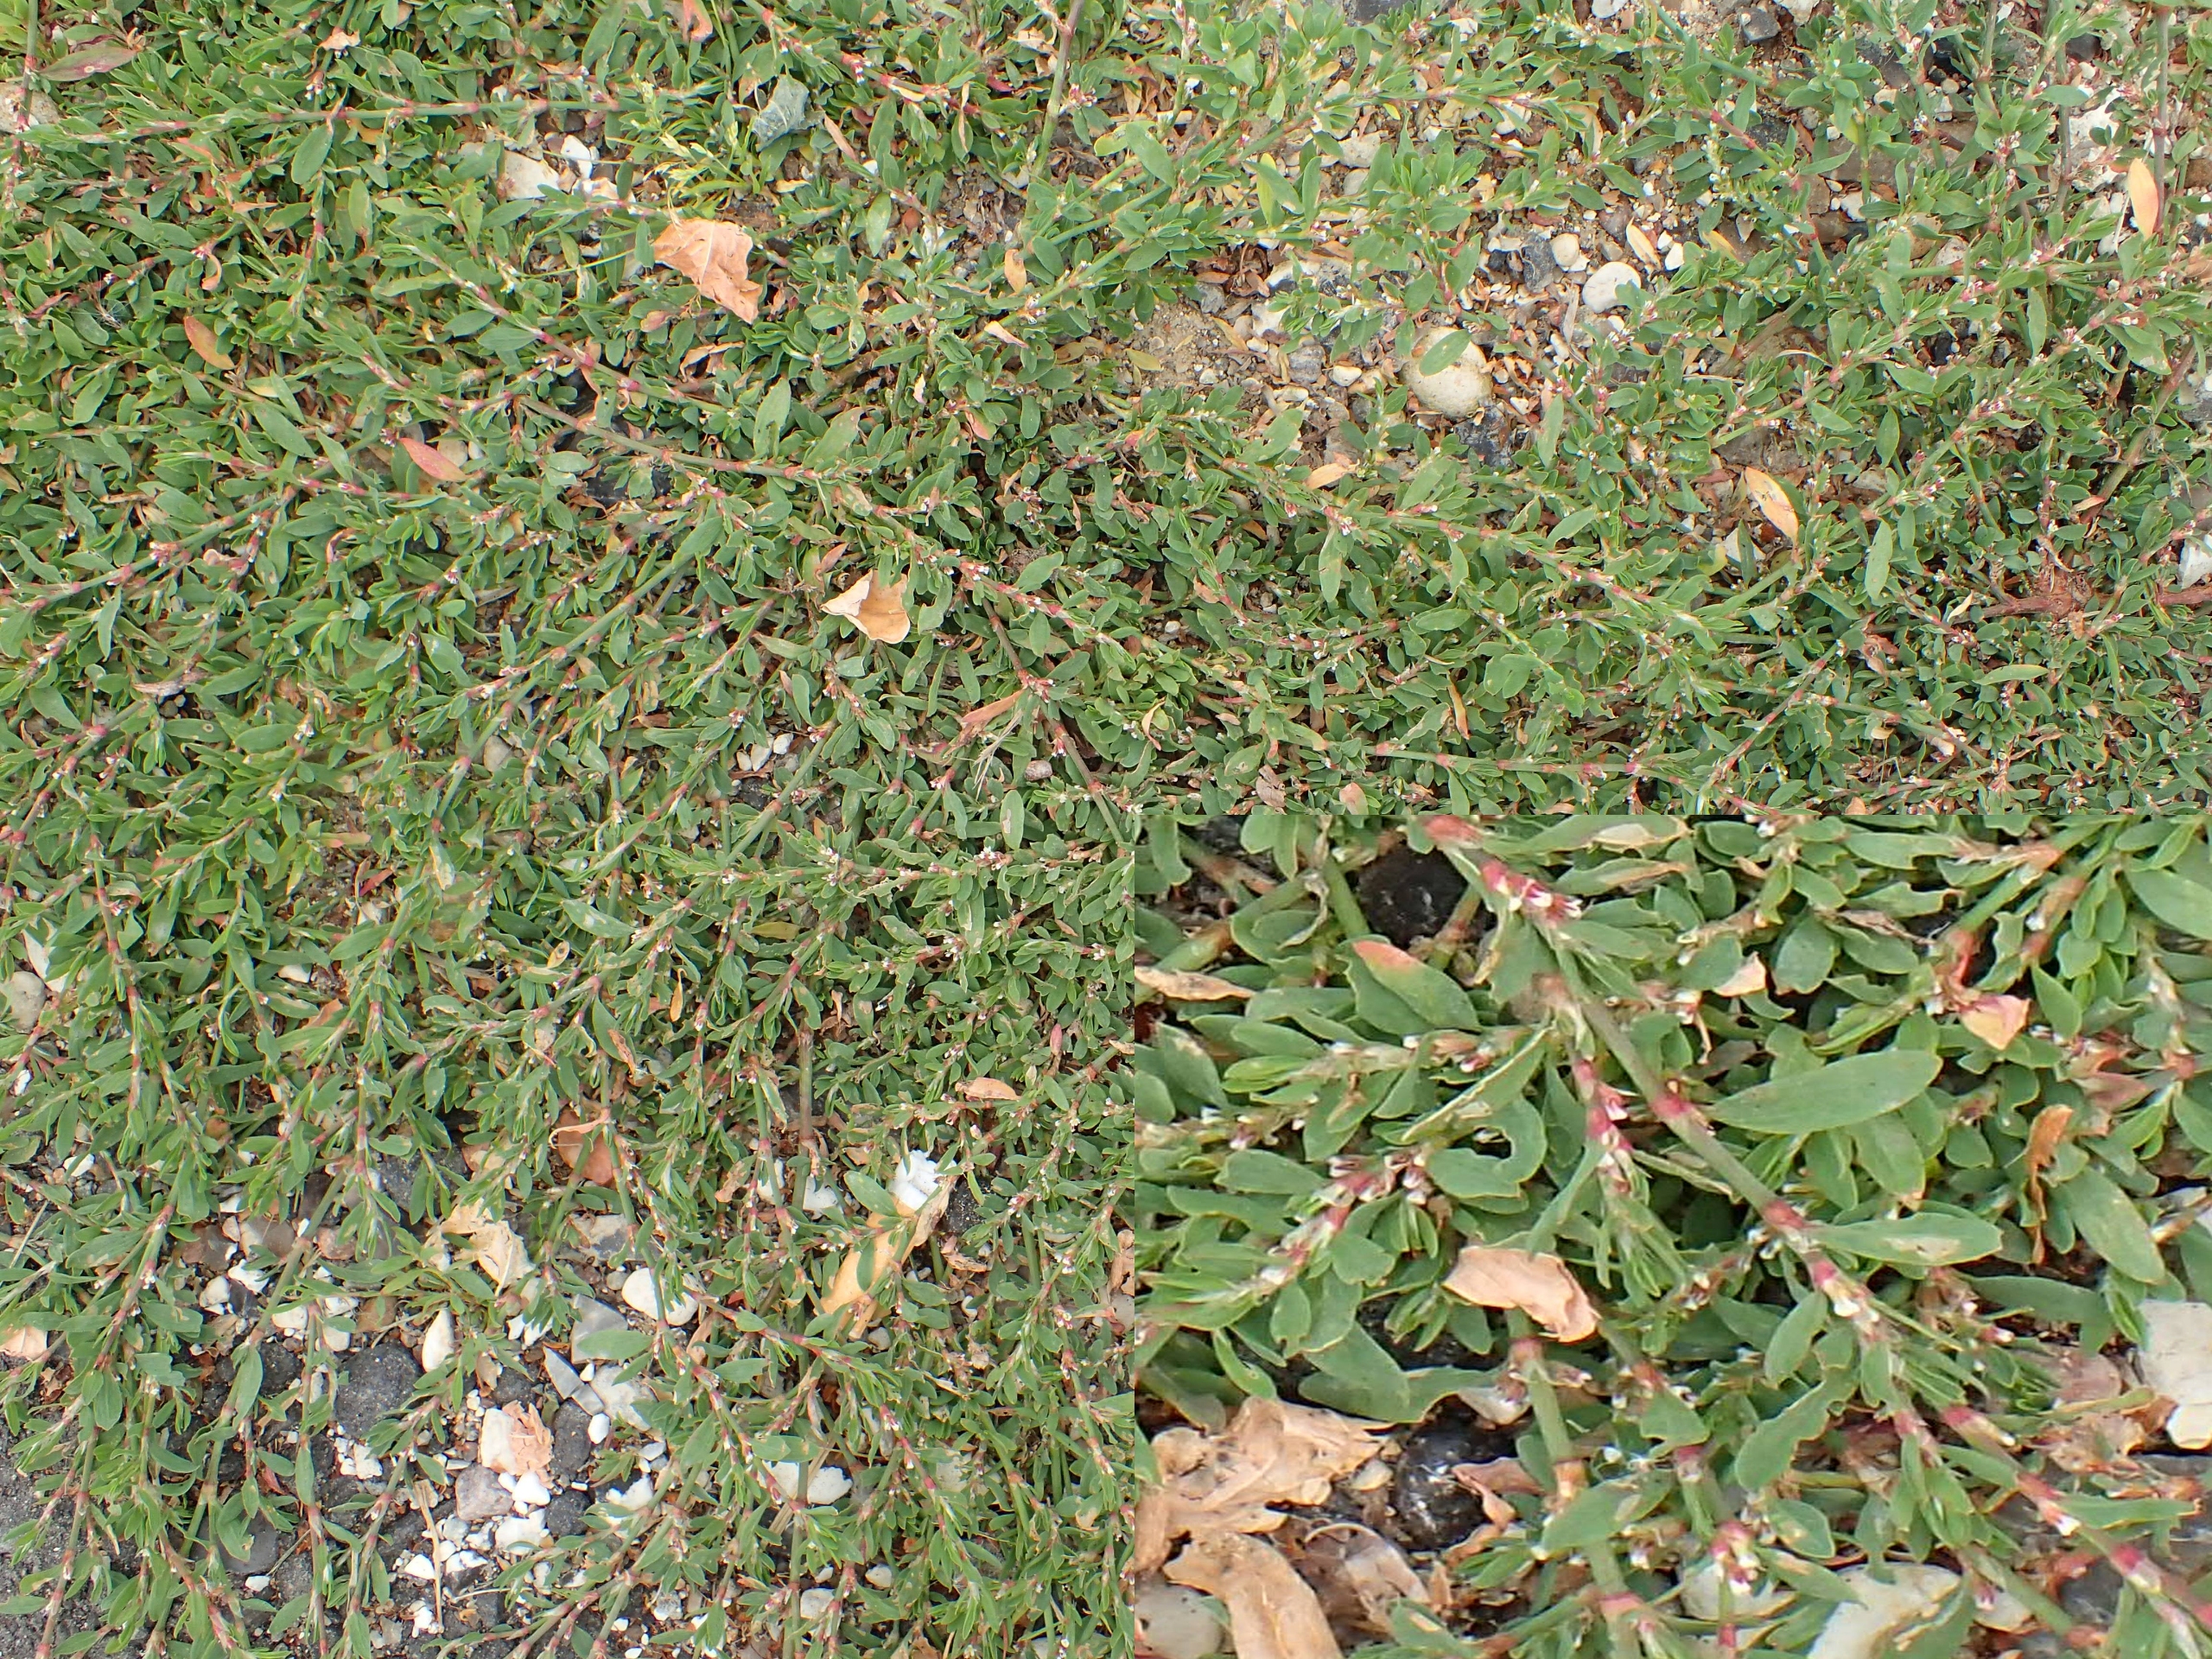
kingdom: Plantae
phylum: Tracheophyta
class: Magnoliopsida
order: Caryophyllales
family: Polygonaceae
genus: Polygonum
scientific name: Polygonum arenastrum
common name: Liggende vej-pileurt
